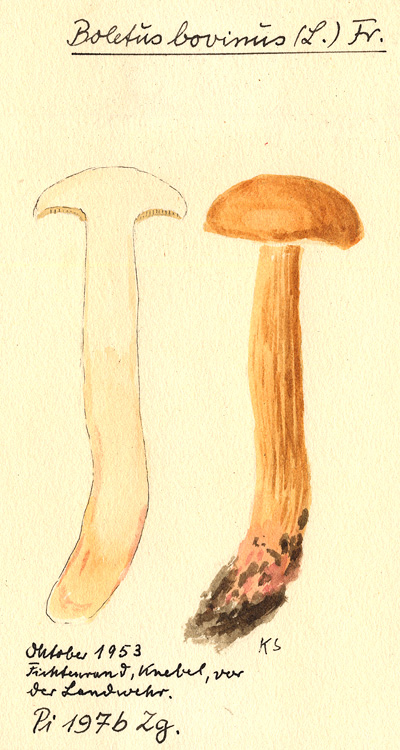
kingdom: Fungi
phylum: Basidiomycota
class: Agaricomycetes
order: Boletales
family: Suillaceae
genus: Suillus
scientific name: Suillus bovinus
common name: Bovine bolete
